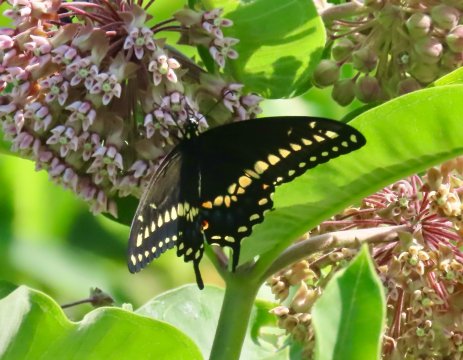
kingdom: Animalia
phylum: Arthropoda
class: Insecta
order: Lepidoptera
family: Papilionidae
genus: Papilio
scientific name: Papilio polyxenes
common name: Black Swallowtail
